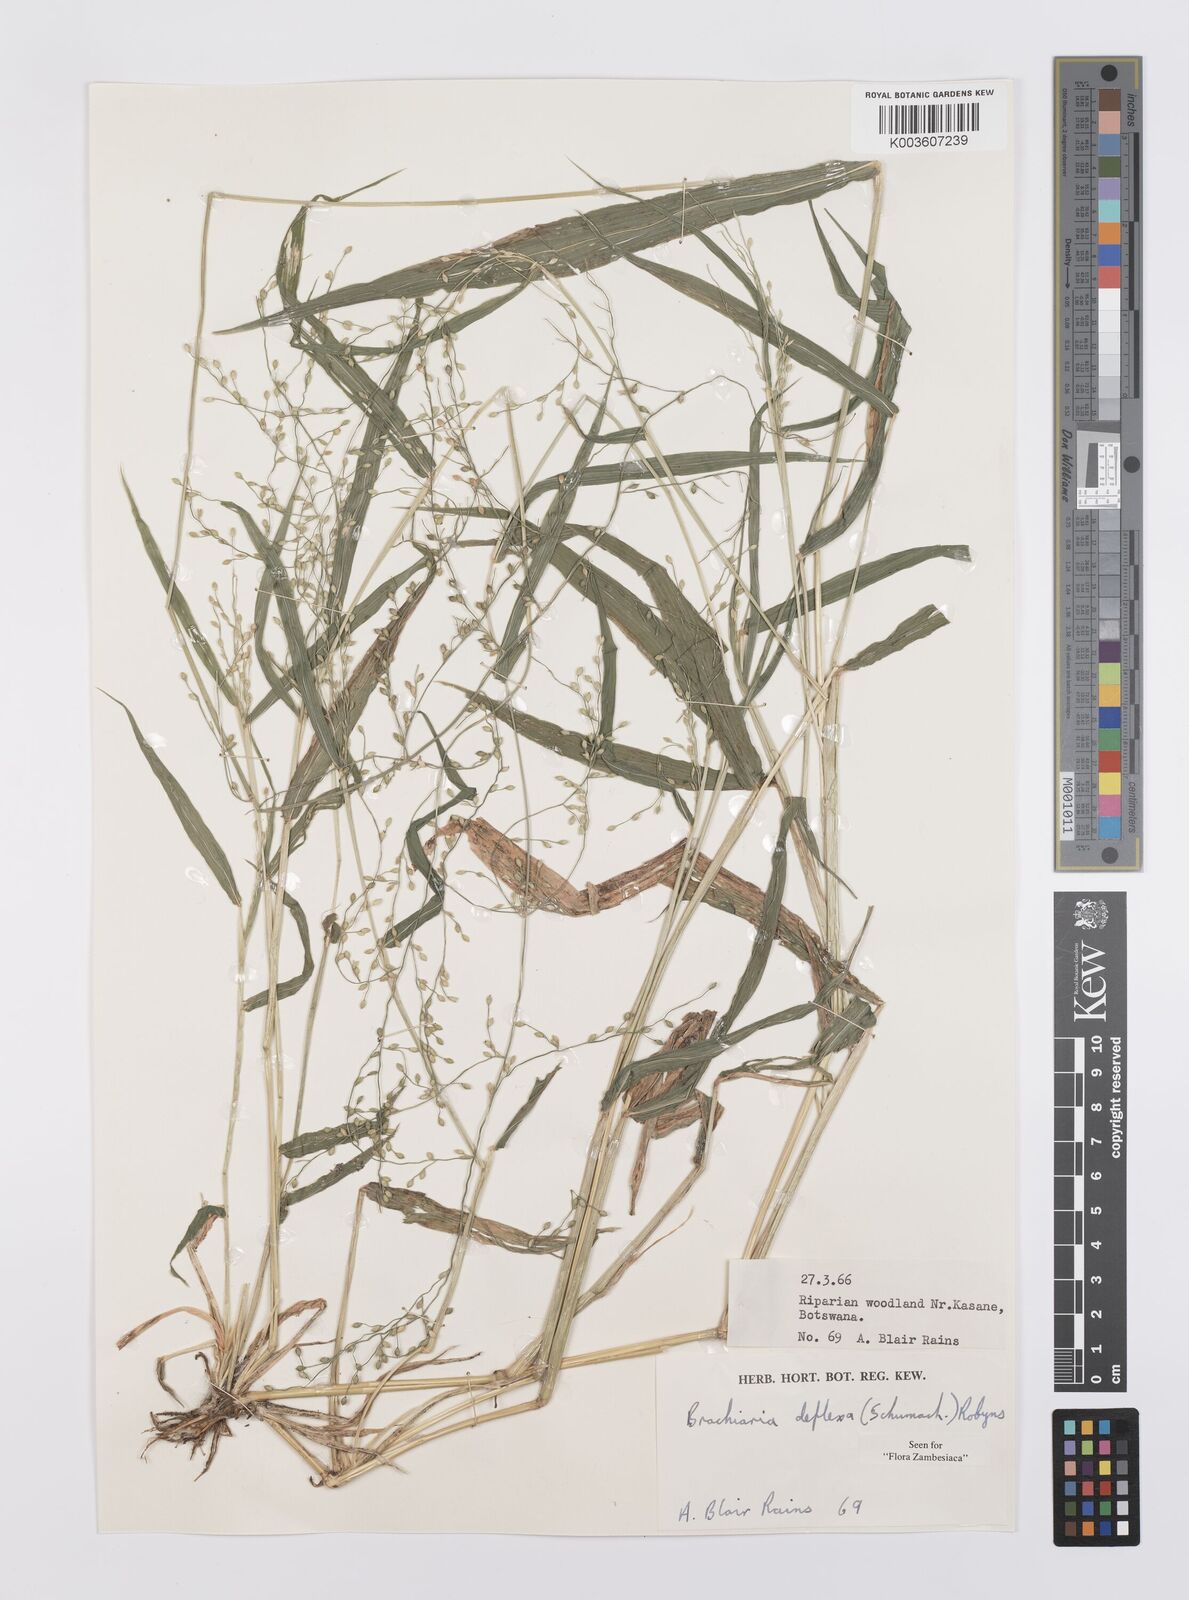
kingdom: Plantae
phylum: Tracheophyta
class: Liliopsida
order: Poales
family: Poaceae
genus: Urochloa
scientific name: Urochloa deflexa
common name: Guinea millet
